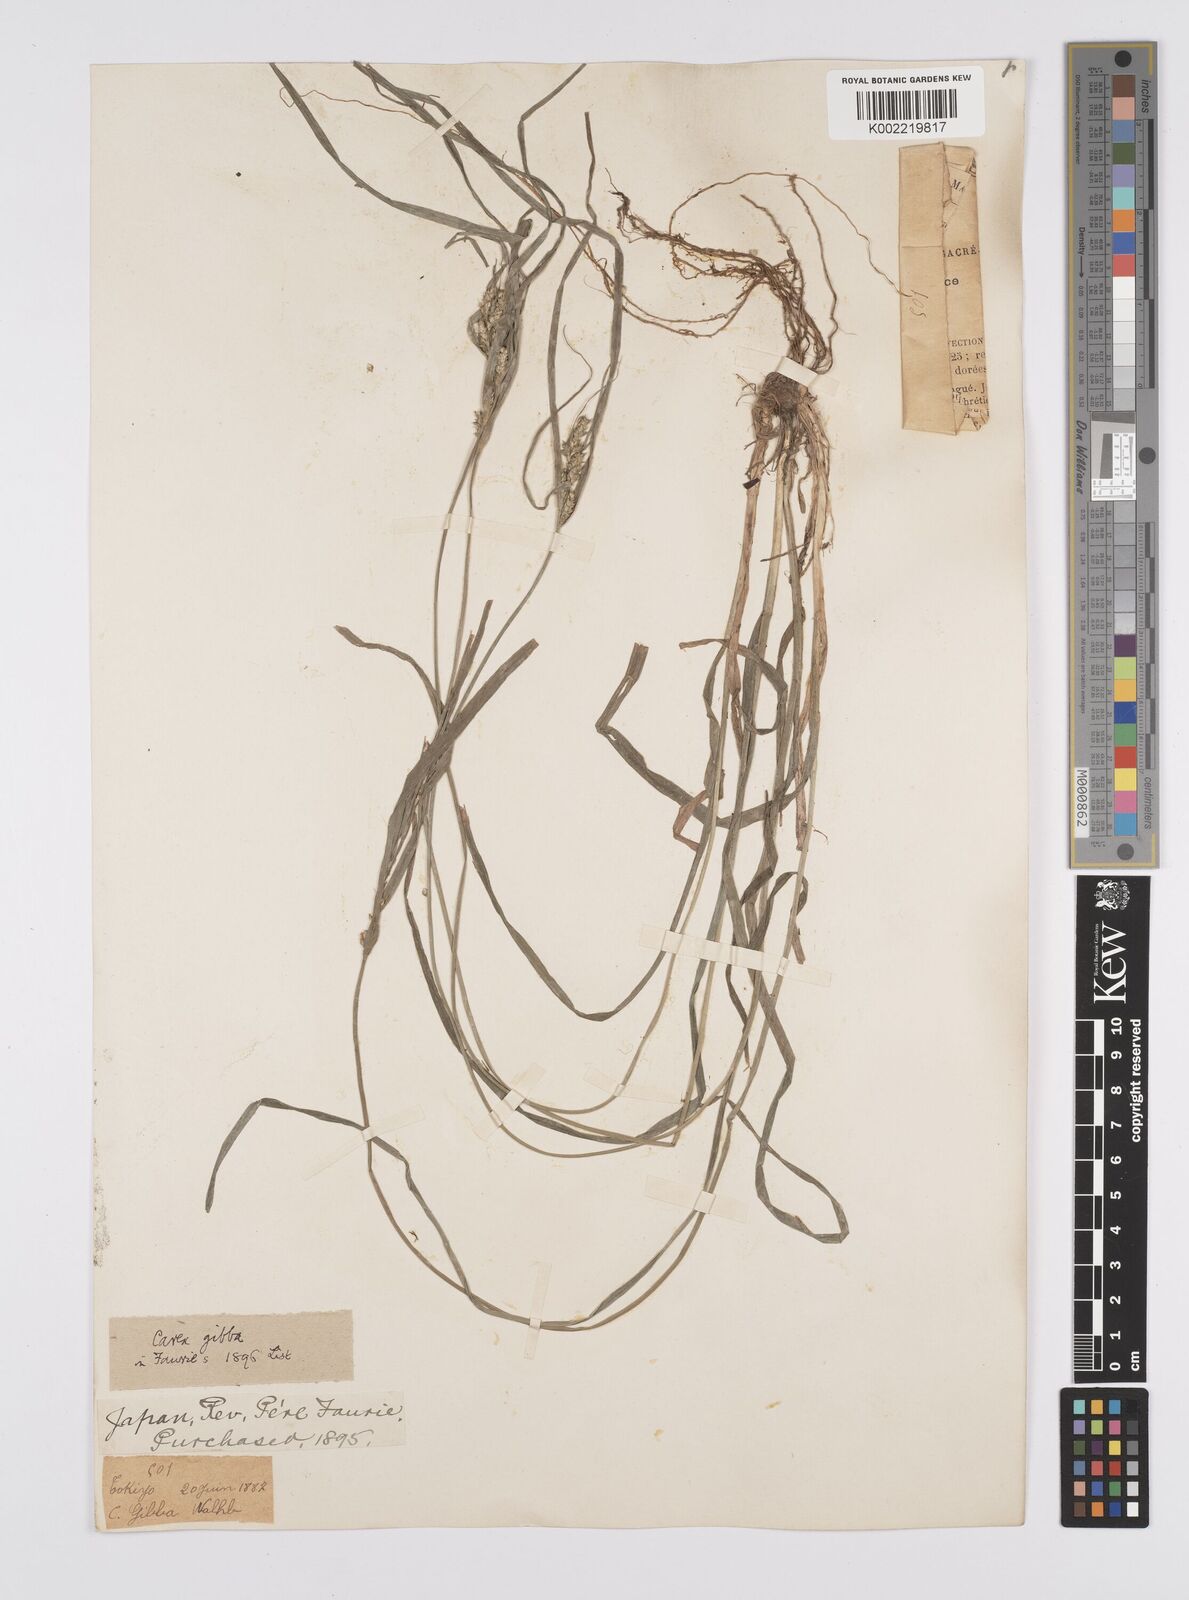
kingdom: Plantae
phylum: Tracheophyta
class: Liliopsida
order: Poales
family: Cyperaceae
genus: Carex
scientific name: Carex gibba
